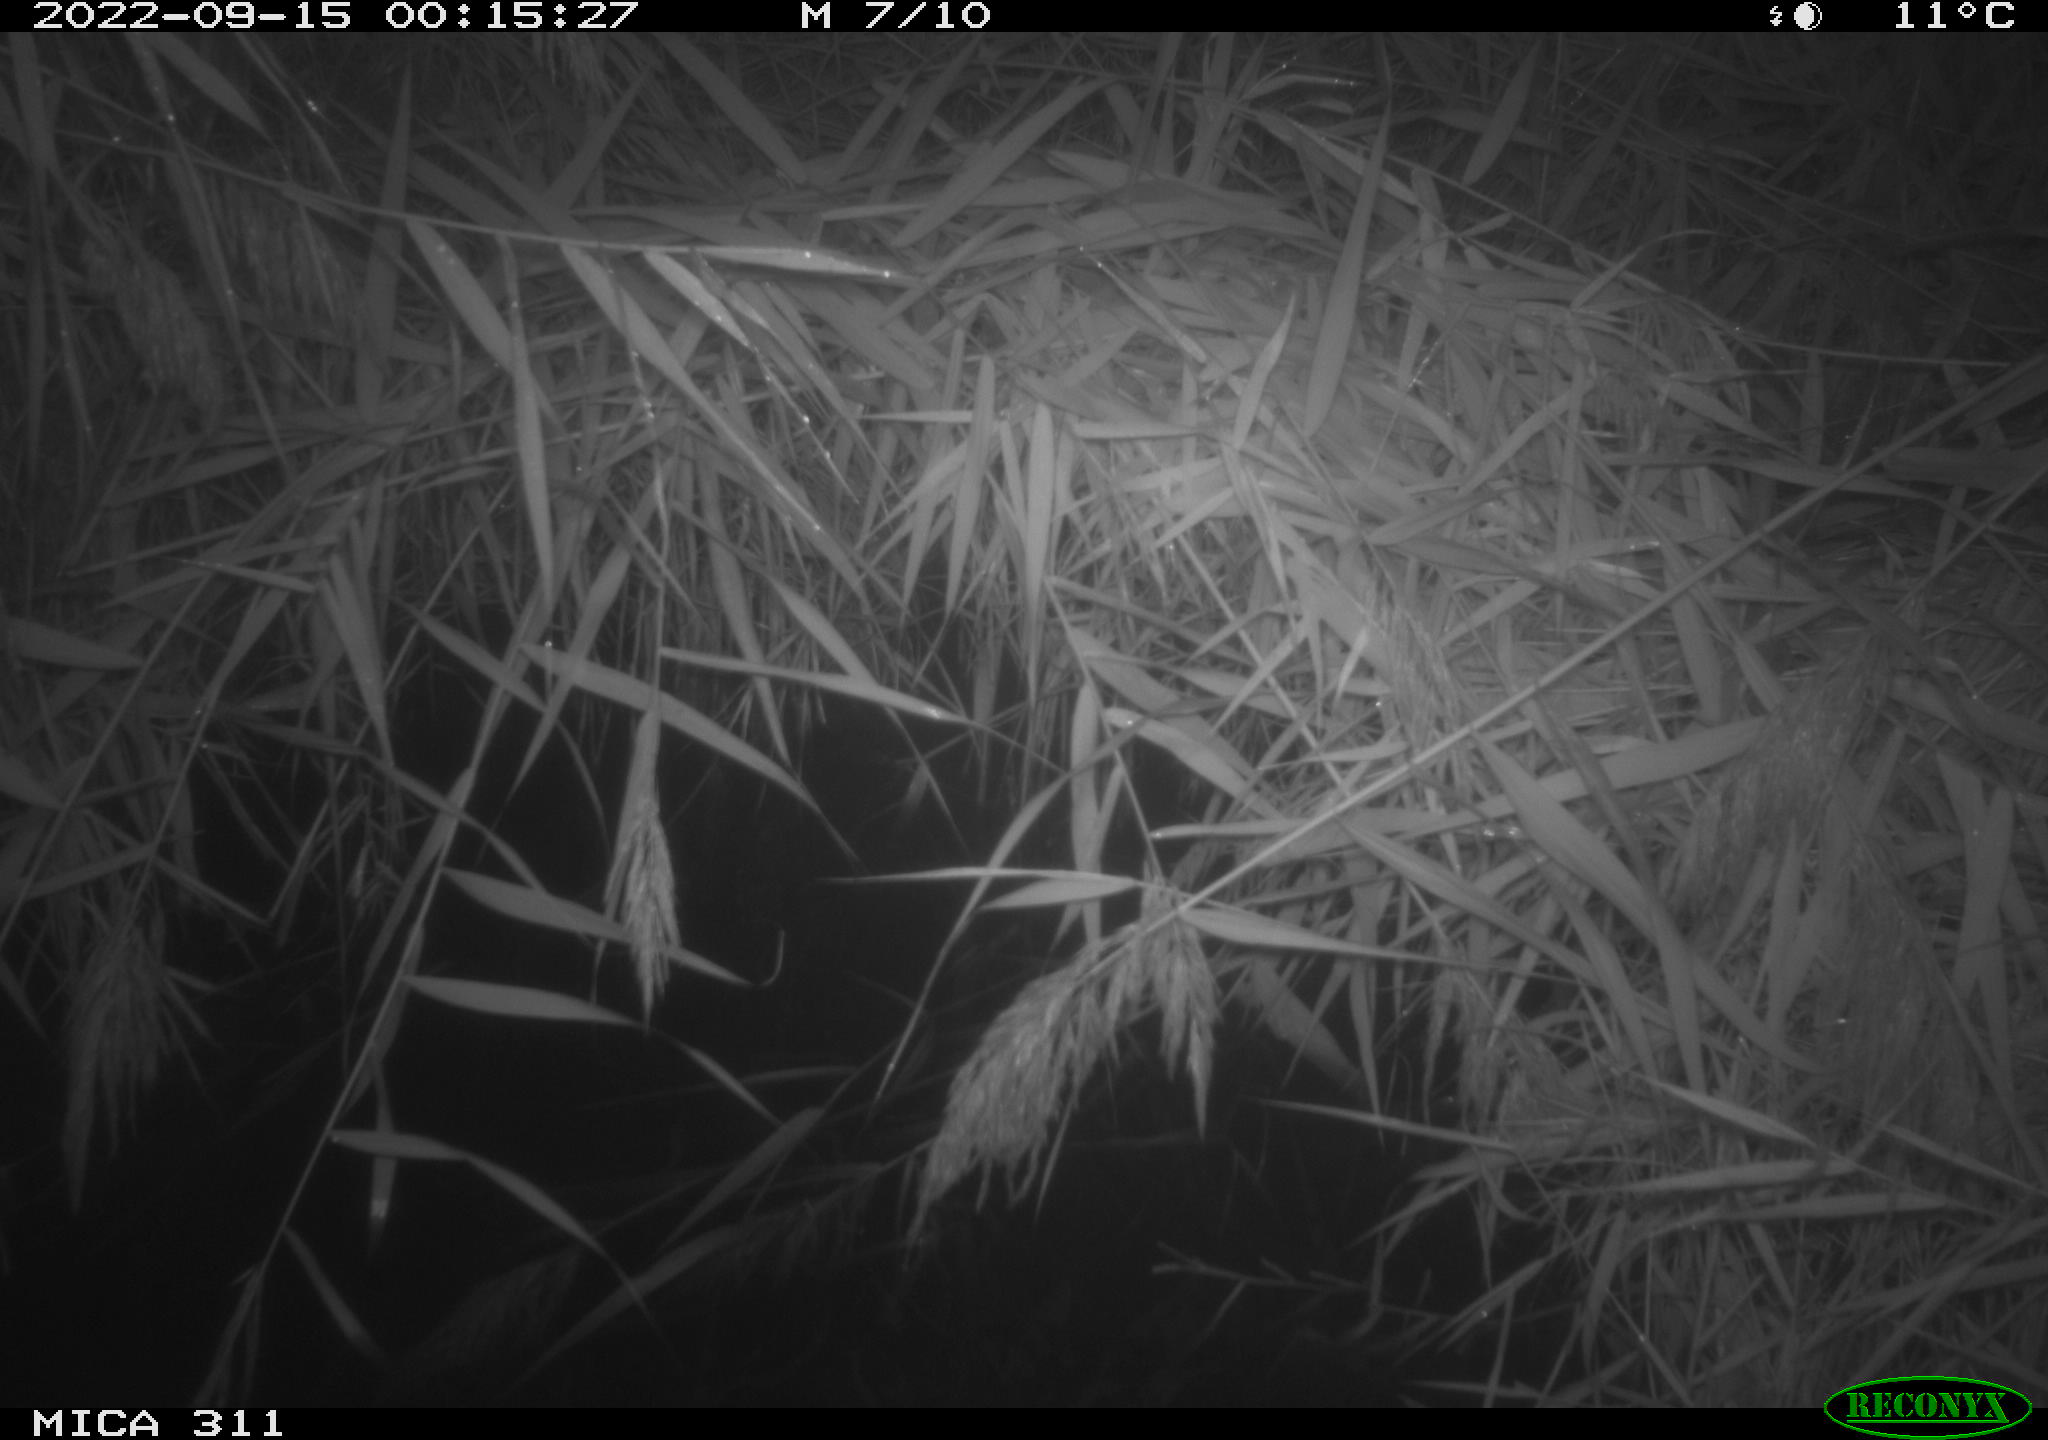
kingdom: Animalia
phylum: Chordata
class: Mammalia
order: Rodentia
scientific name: Rodentia
